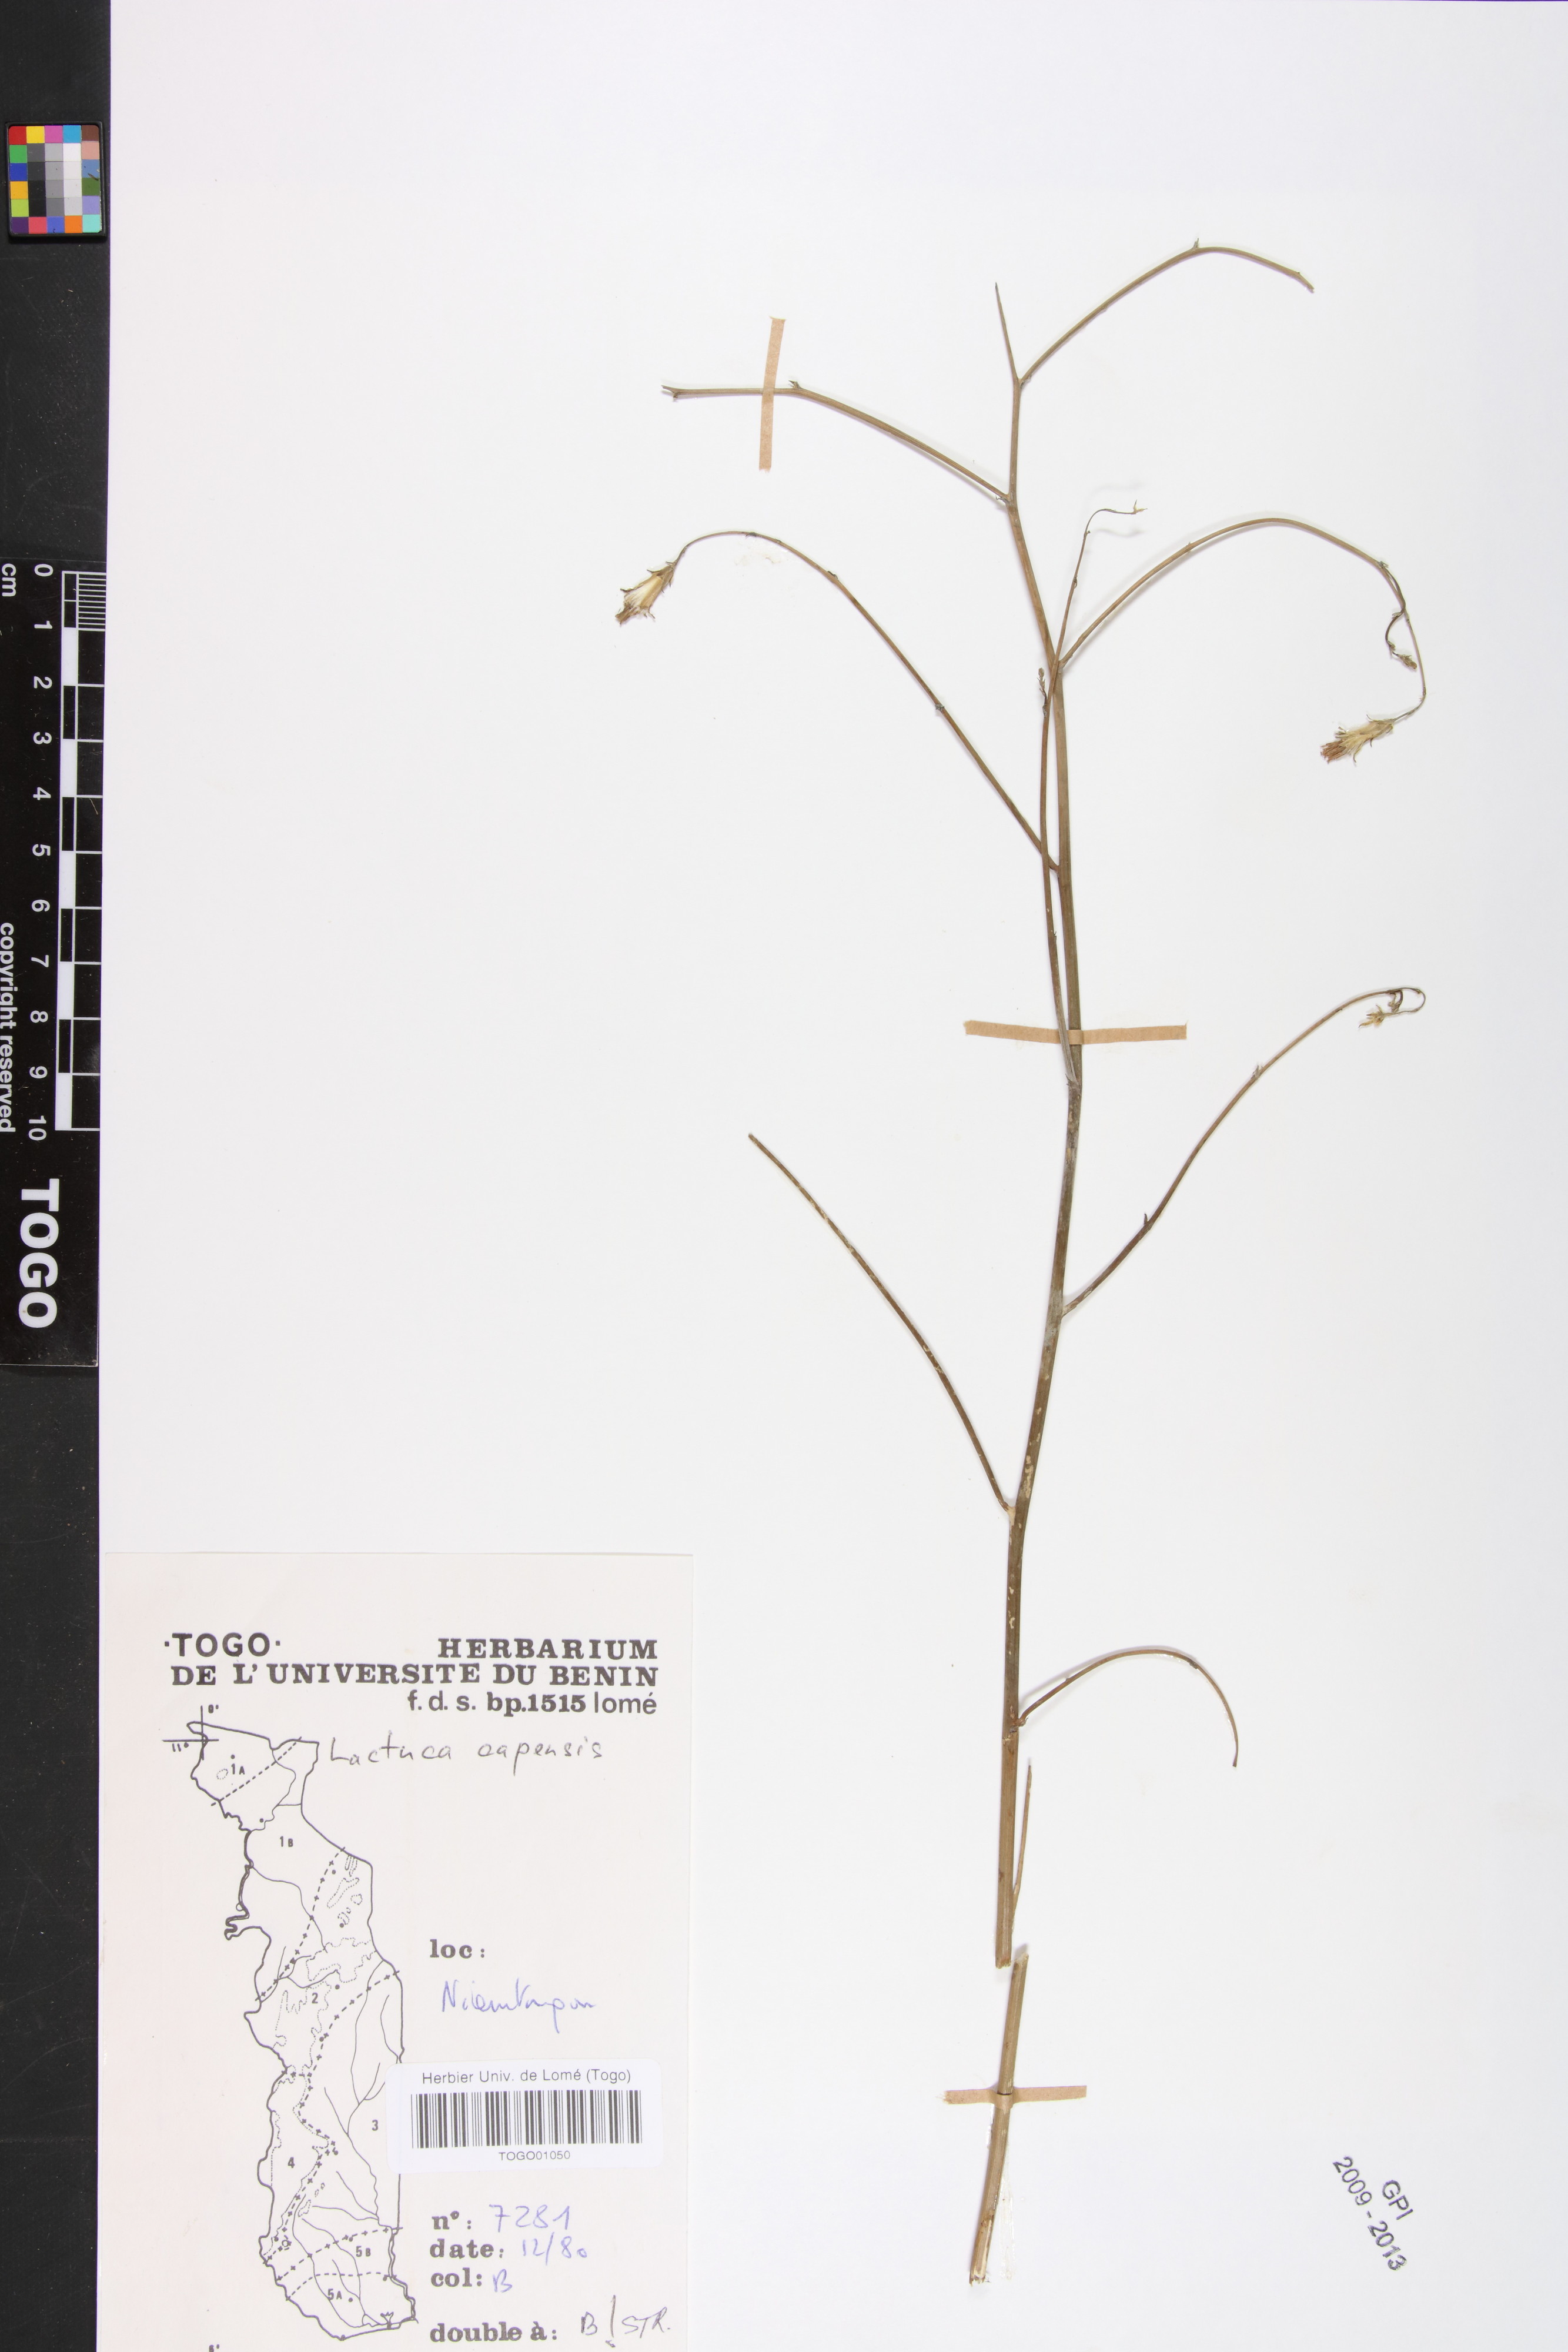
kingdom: Plantae
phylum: Tracheophyta
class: Magnoliopsida
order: Asterales
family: Asteraceae
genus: Lactuca
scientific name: Lactuca inermis
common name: Wild lettuce
